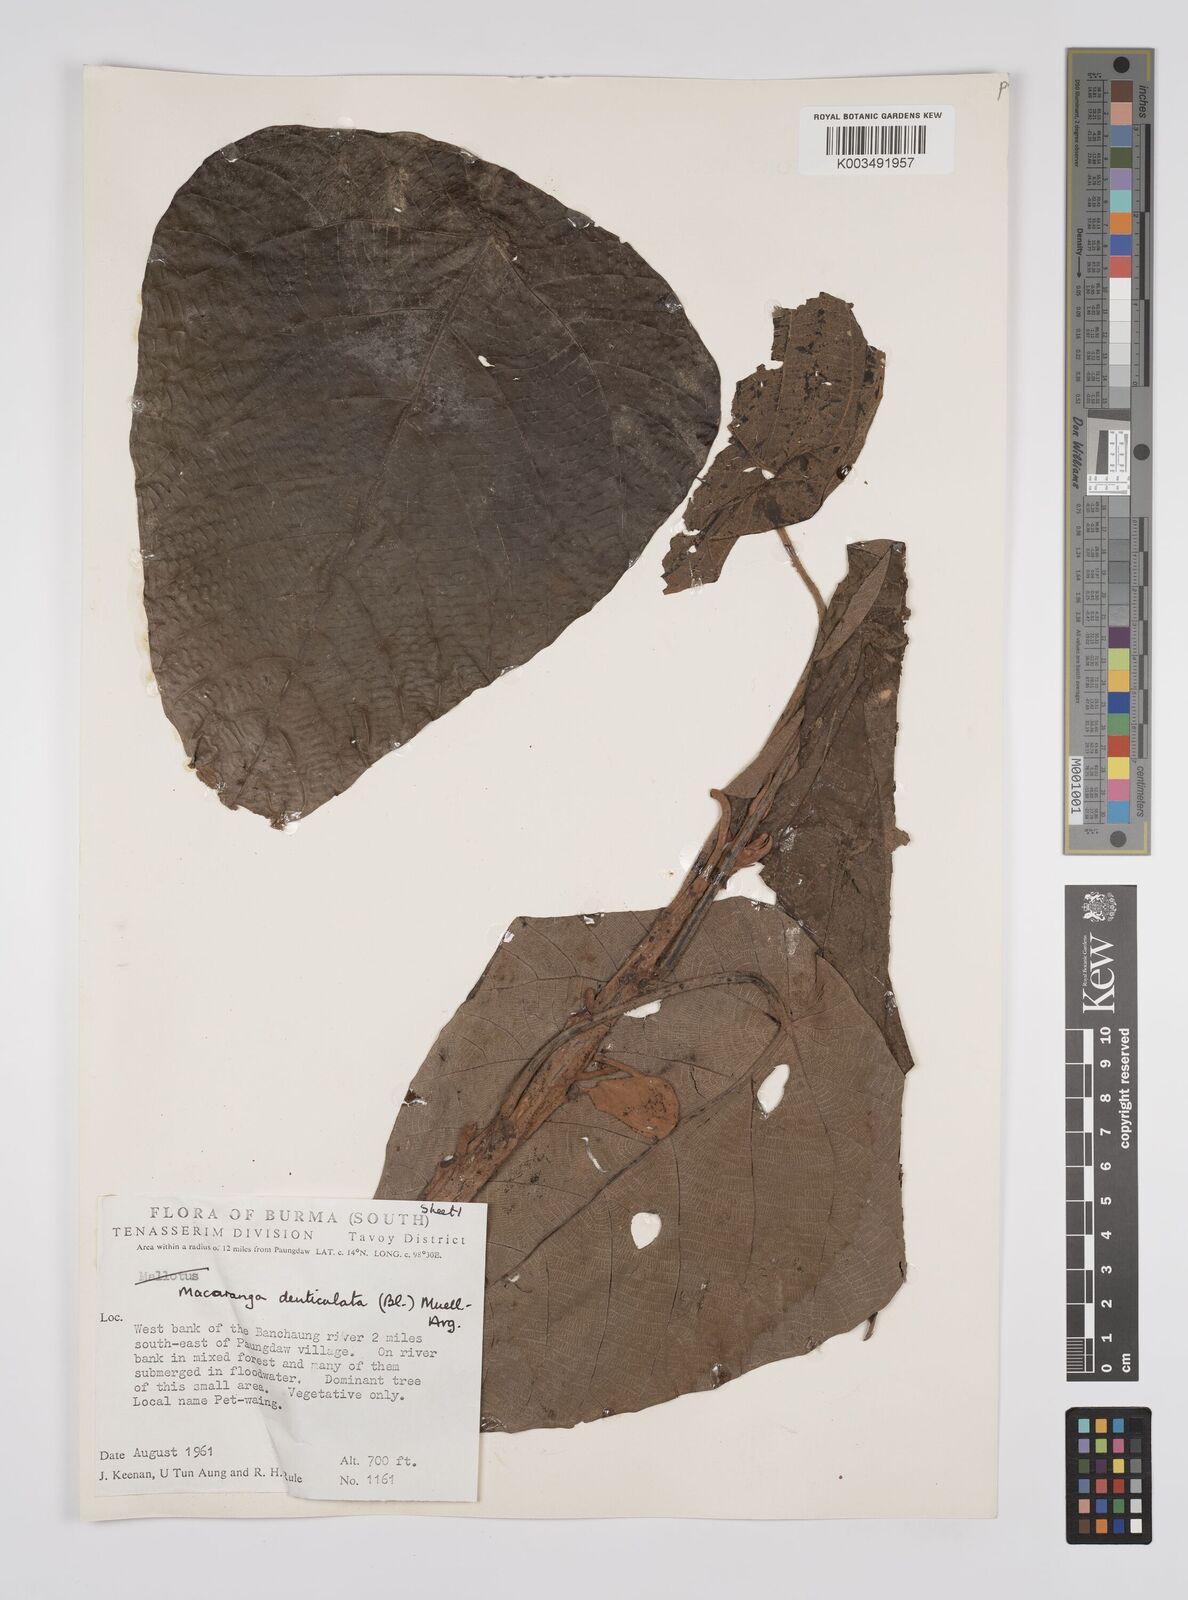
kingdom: Plantae
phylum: Tracheophyta
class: Magnoliopsida
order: Malpighiales
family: Euphorbiaceae
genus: Macaranga
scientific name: Macaranga denticulata
